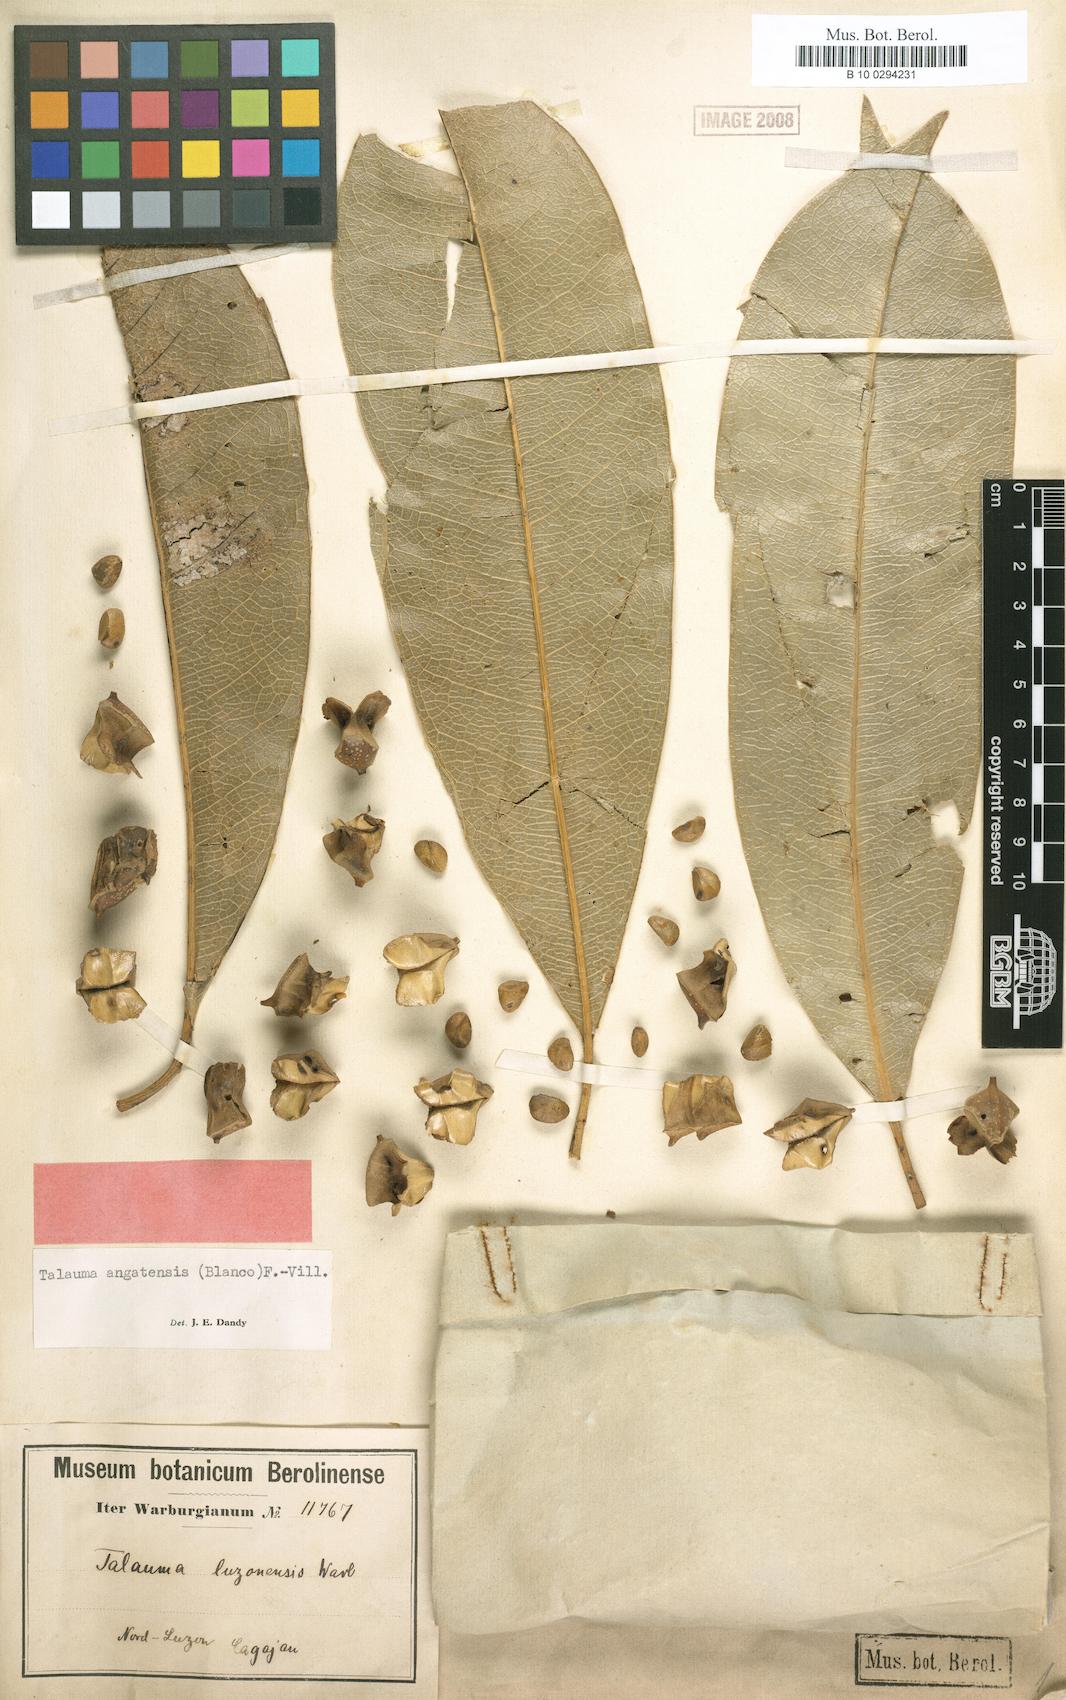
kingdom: Plantae
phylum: Tracheophyta
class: Magnoliopsida
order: Magnoliales
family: Magnoliaceae
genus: Magnolia
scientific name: Magnolia angatensis
